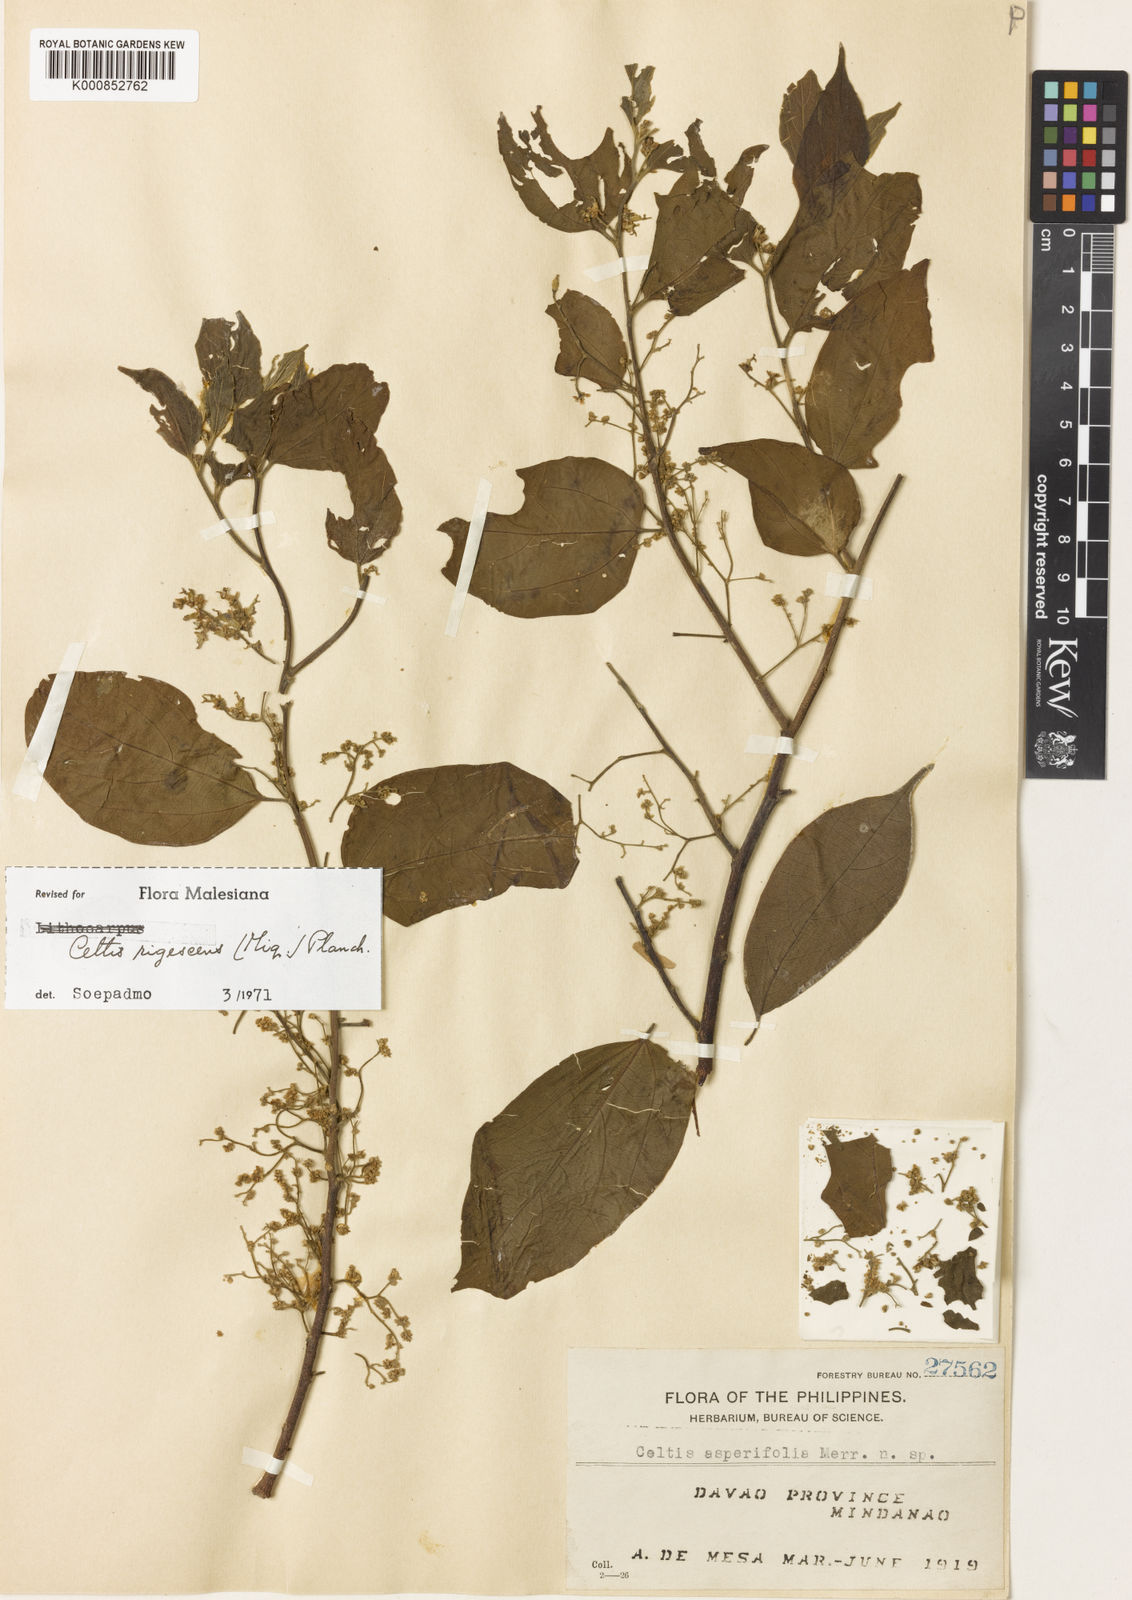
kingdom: Plantae
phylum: Tracheophyta
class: Magnoliopsida
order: Rosales
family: Cannabaceae
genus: Celtis
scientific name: Celtis rigescens
